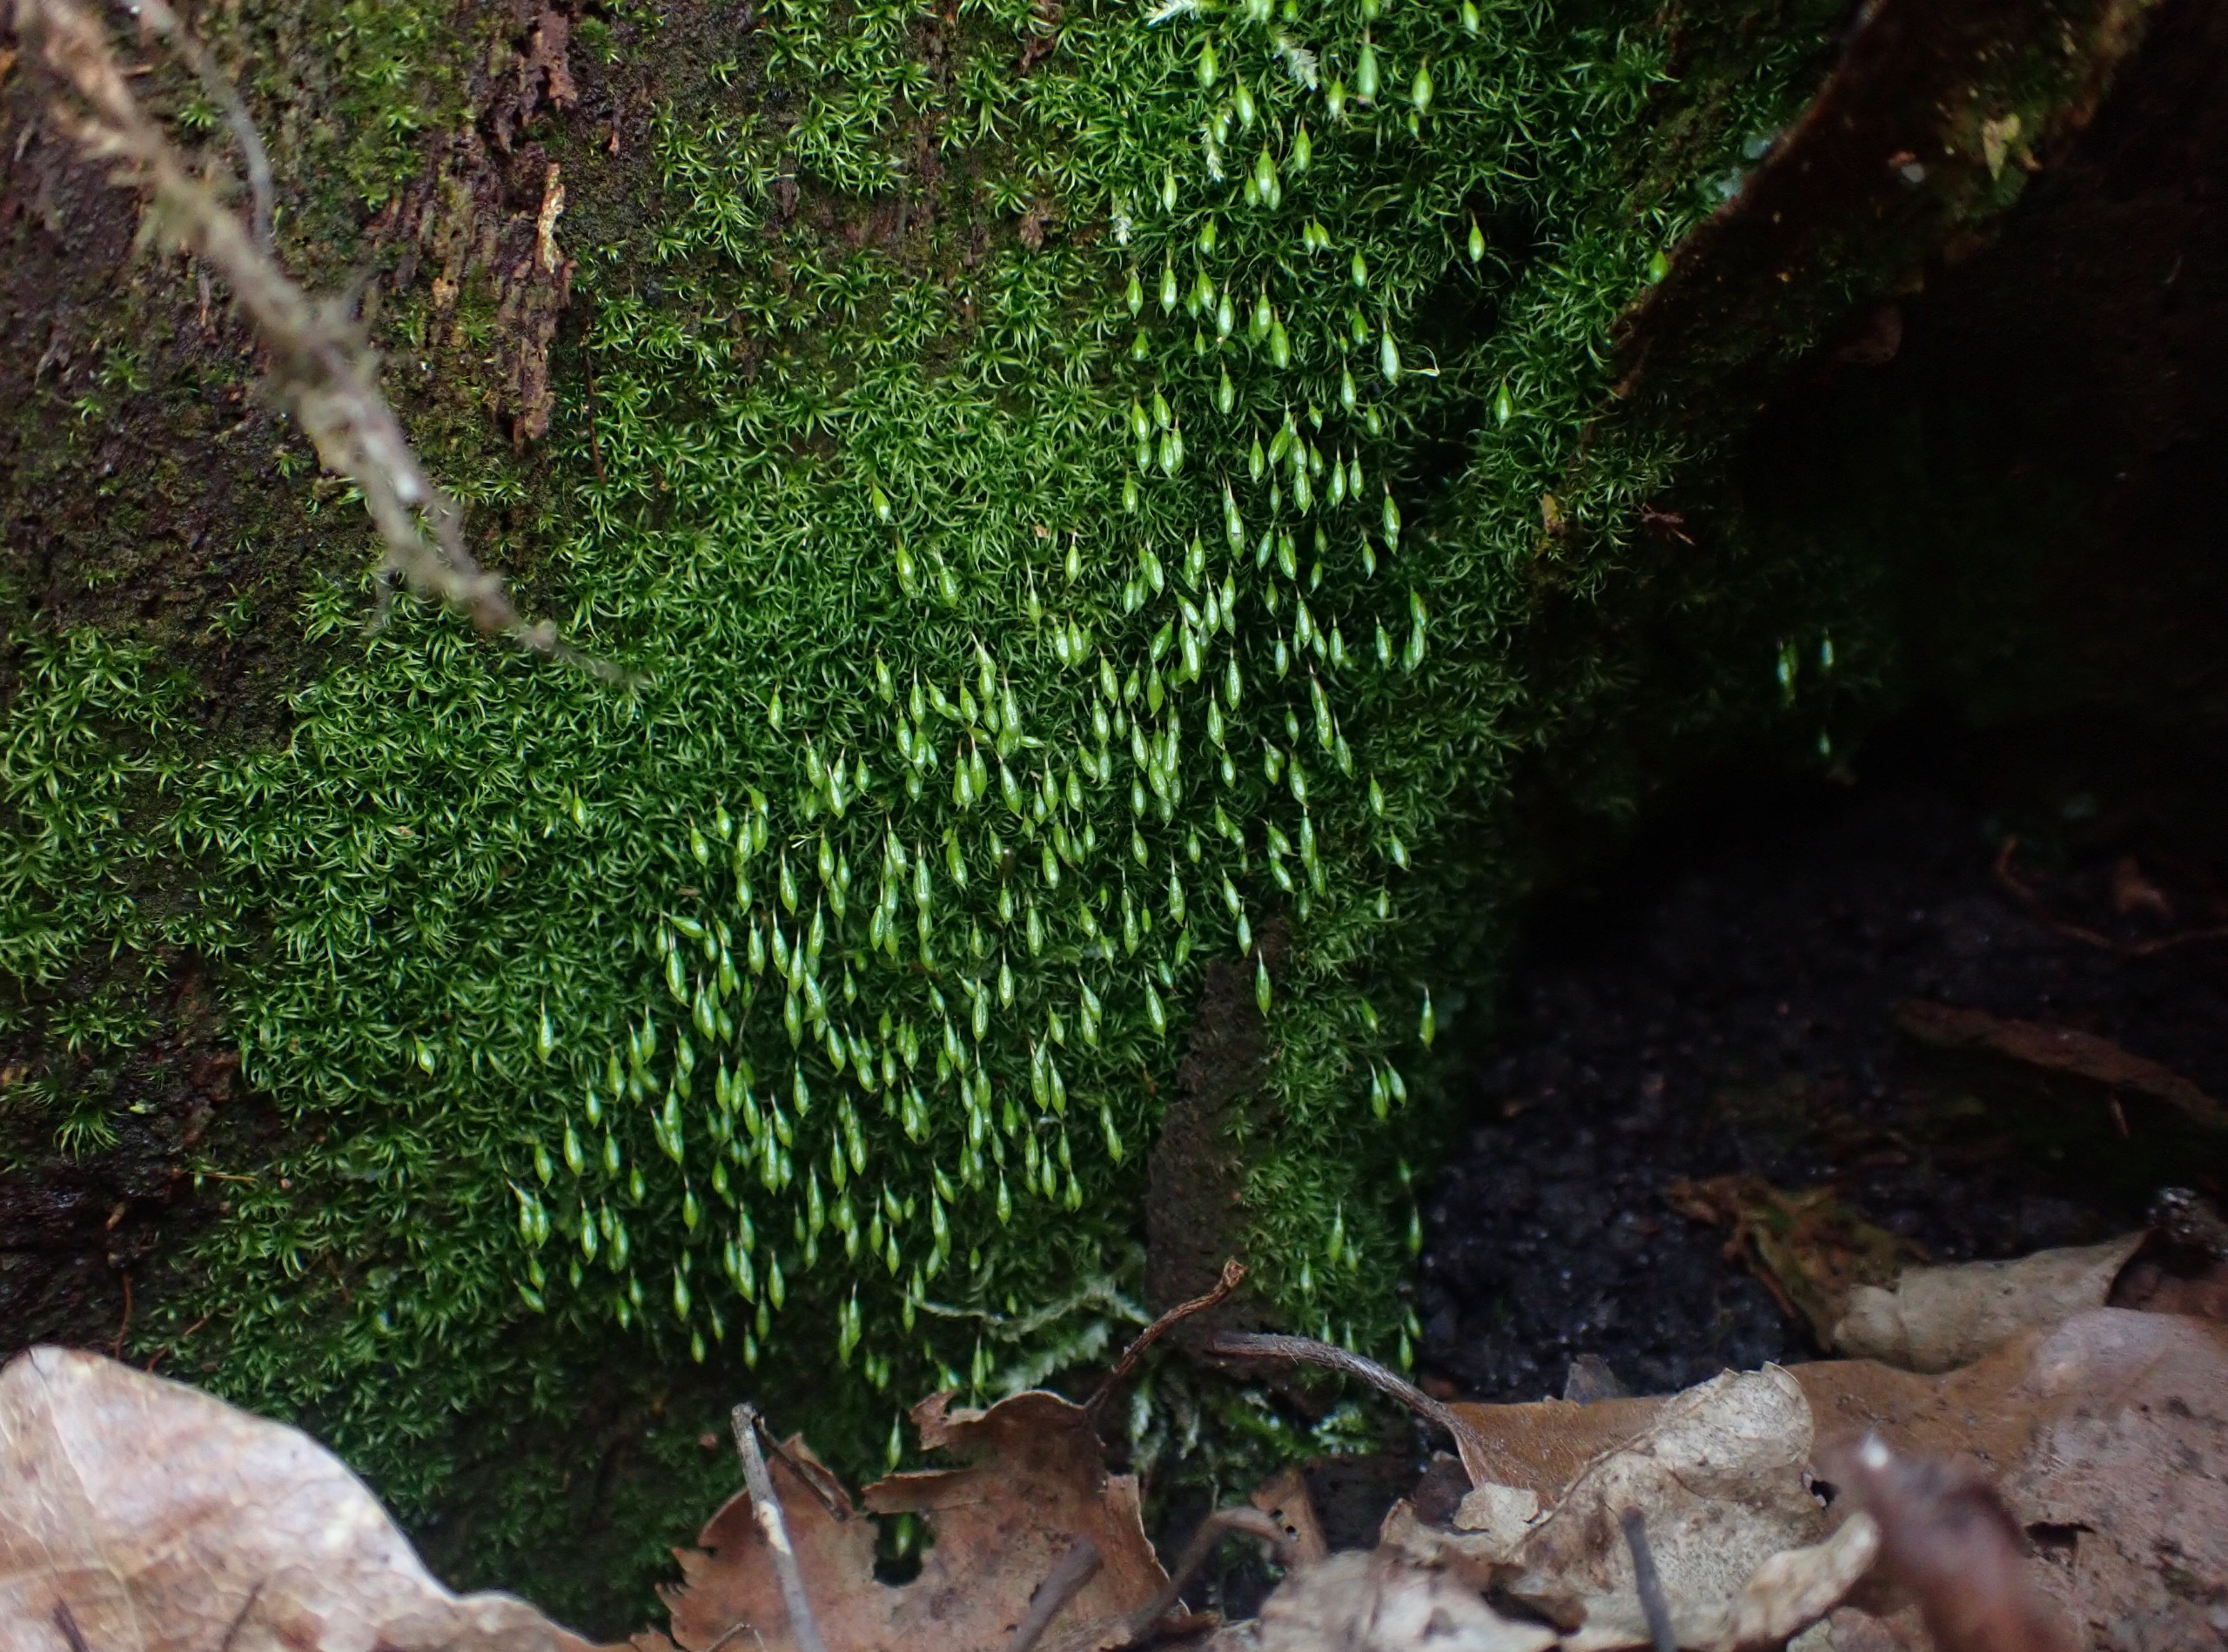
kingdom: Plantae
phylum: Bryophyta
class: Bryopsida
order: Orthodontiales
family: Orthodontiaceae
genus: Orthodontium
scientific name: Orthodontium lineare
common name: Smalbladet plysmos
